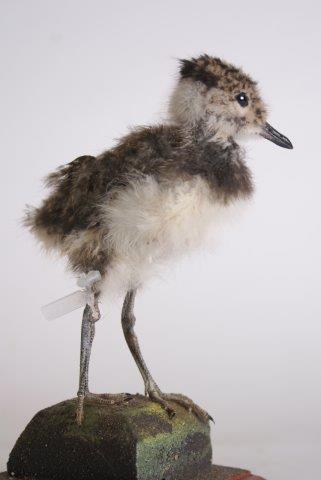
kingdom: Animalia
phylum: Chordata
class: Aves
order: Charadriiformes
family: Charadriidae
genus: Vanellus
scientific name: Vanellus vanellus
